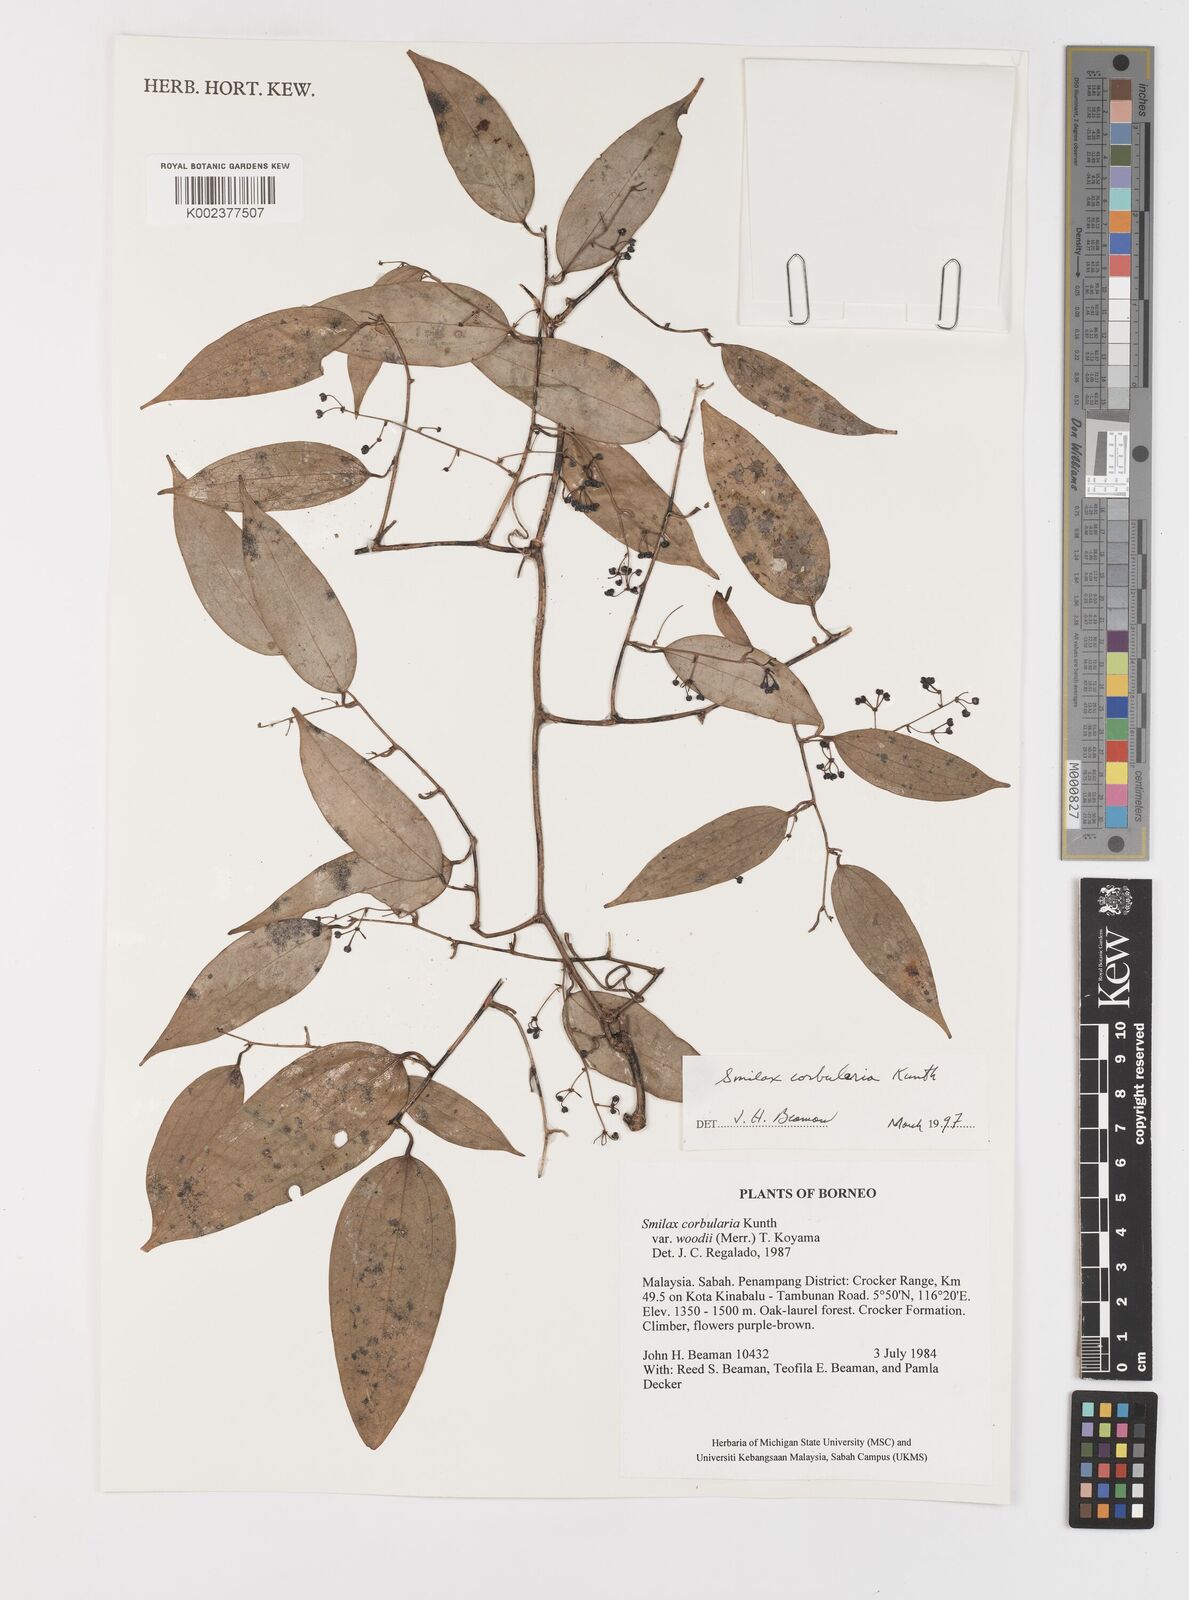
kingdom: Plantae
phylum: Tracheophyta
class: Liliopsida
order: Liliales
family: Smilacaceae
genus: Smilax
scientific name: Smilax corbularia
